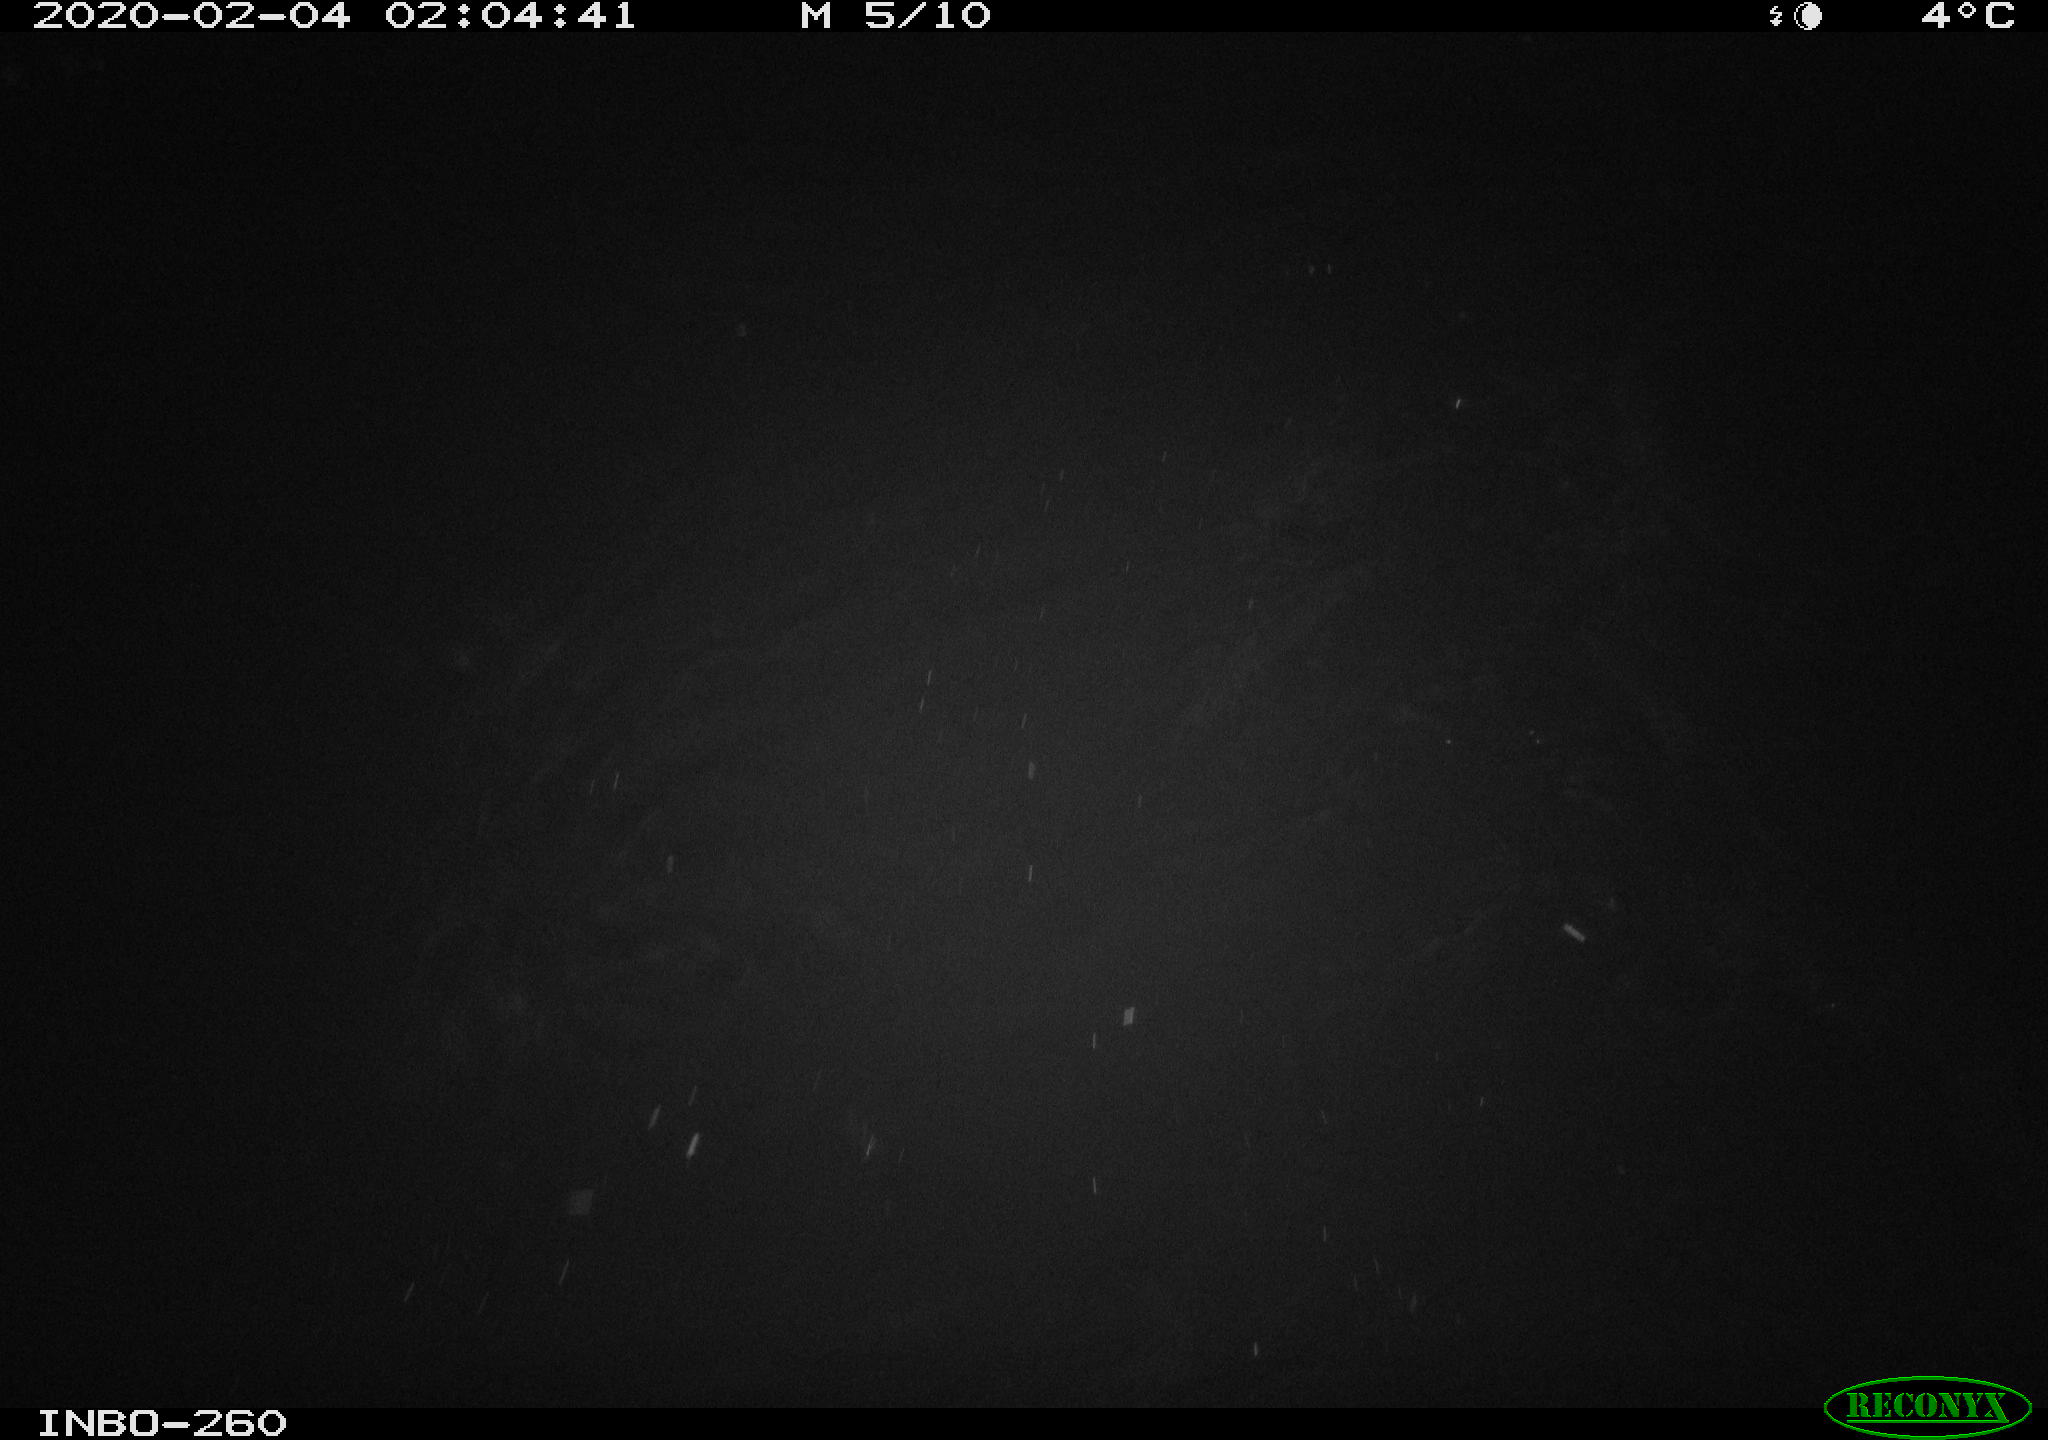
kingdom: Animalia
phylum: Chordata
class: Aves
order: Anseriformes
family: Anatidae
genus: Anas
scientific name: Anas platyrhynchos
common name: Mallard
